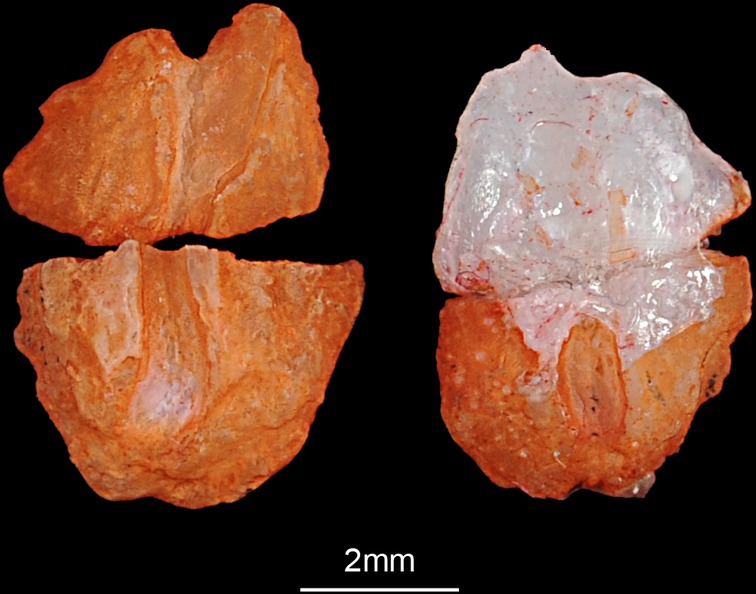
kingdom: Animalia
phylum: Chordata
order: Perciformes
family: Cichlidae
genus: Cichlasoma
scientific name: Cichlasoma
